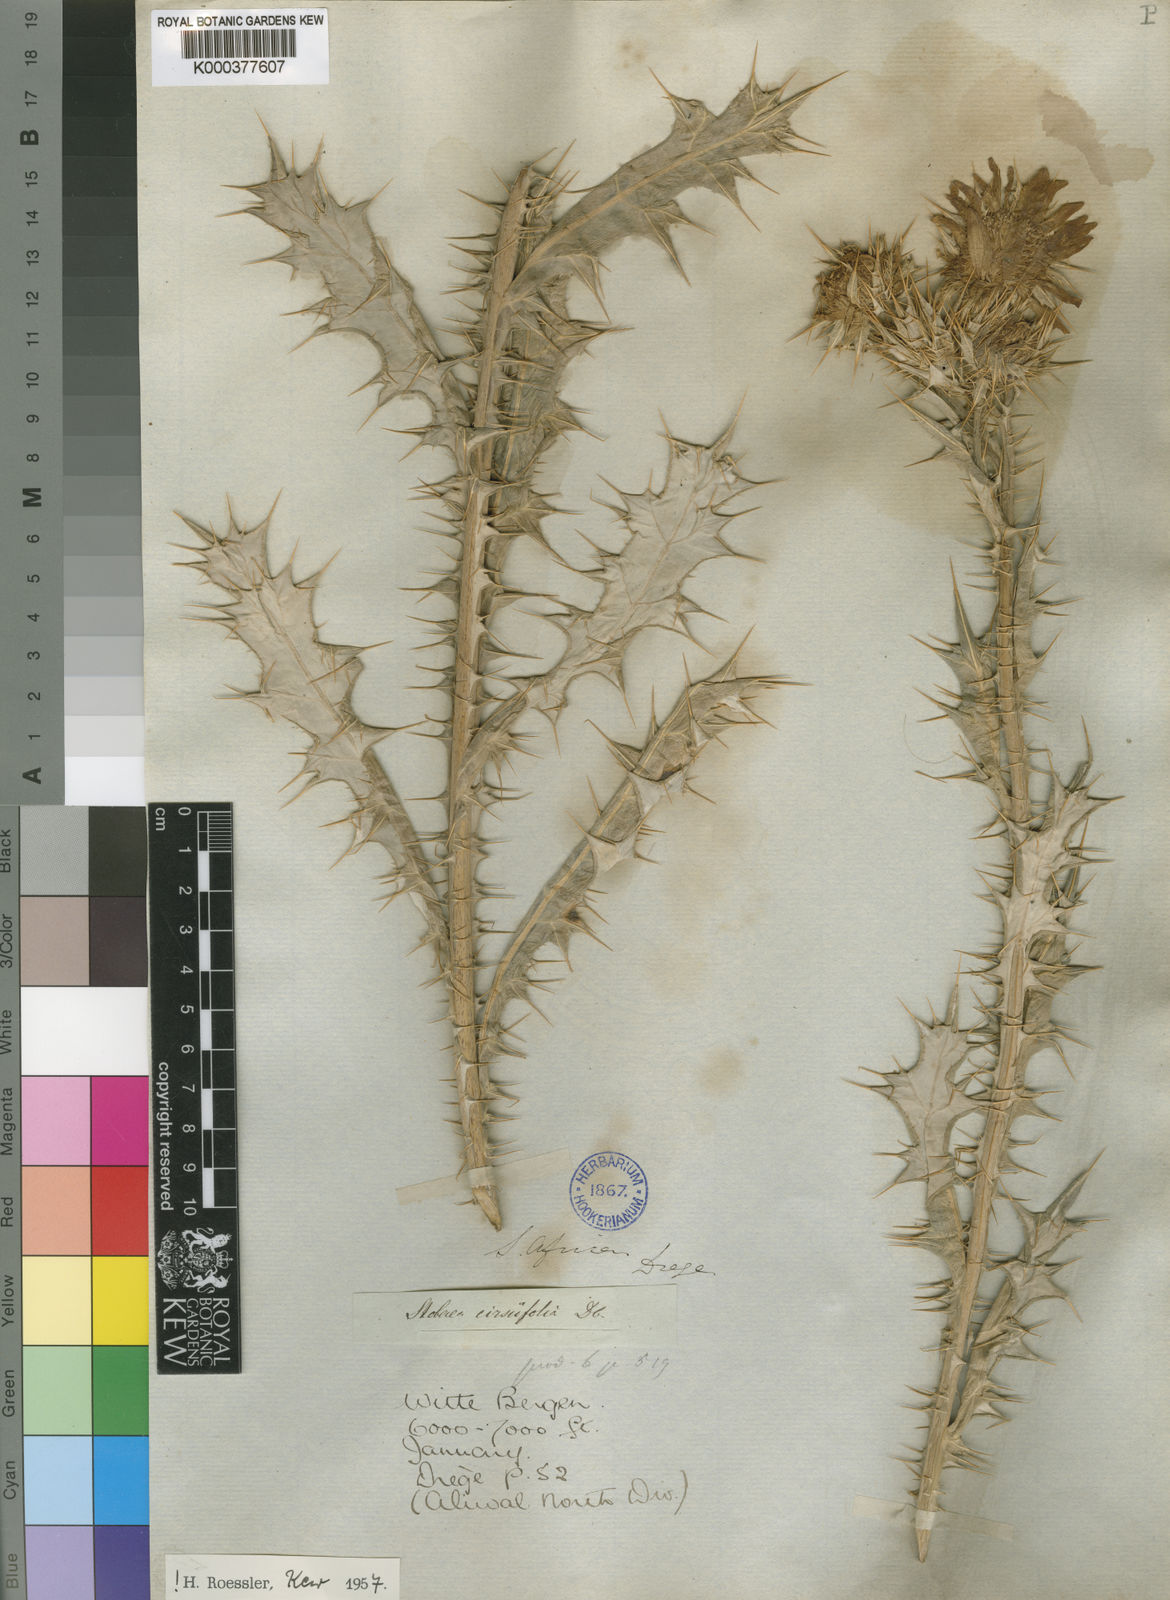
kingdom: Plantae
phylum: Tracheophyta
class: Magnoliopsida
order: Asterales
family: Asteraceae
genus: Berkheya
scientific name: Berkheya cirsiifolia
